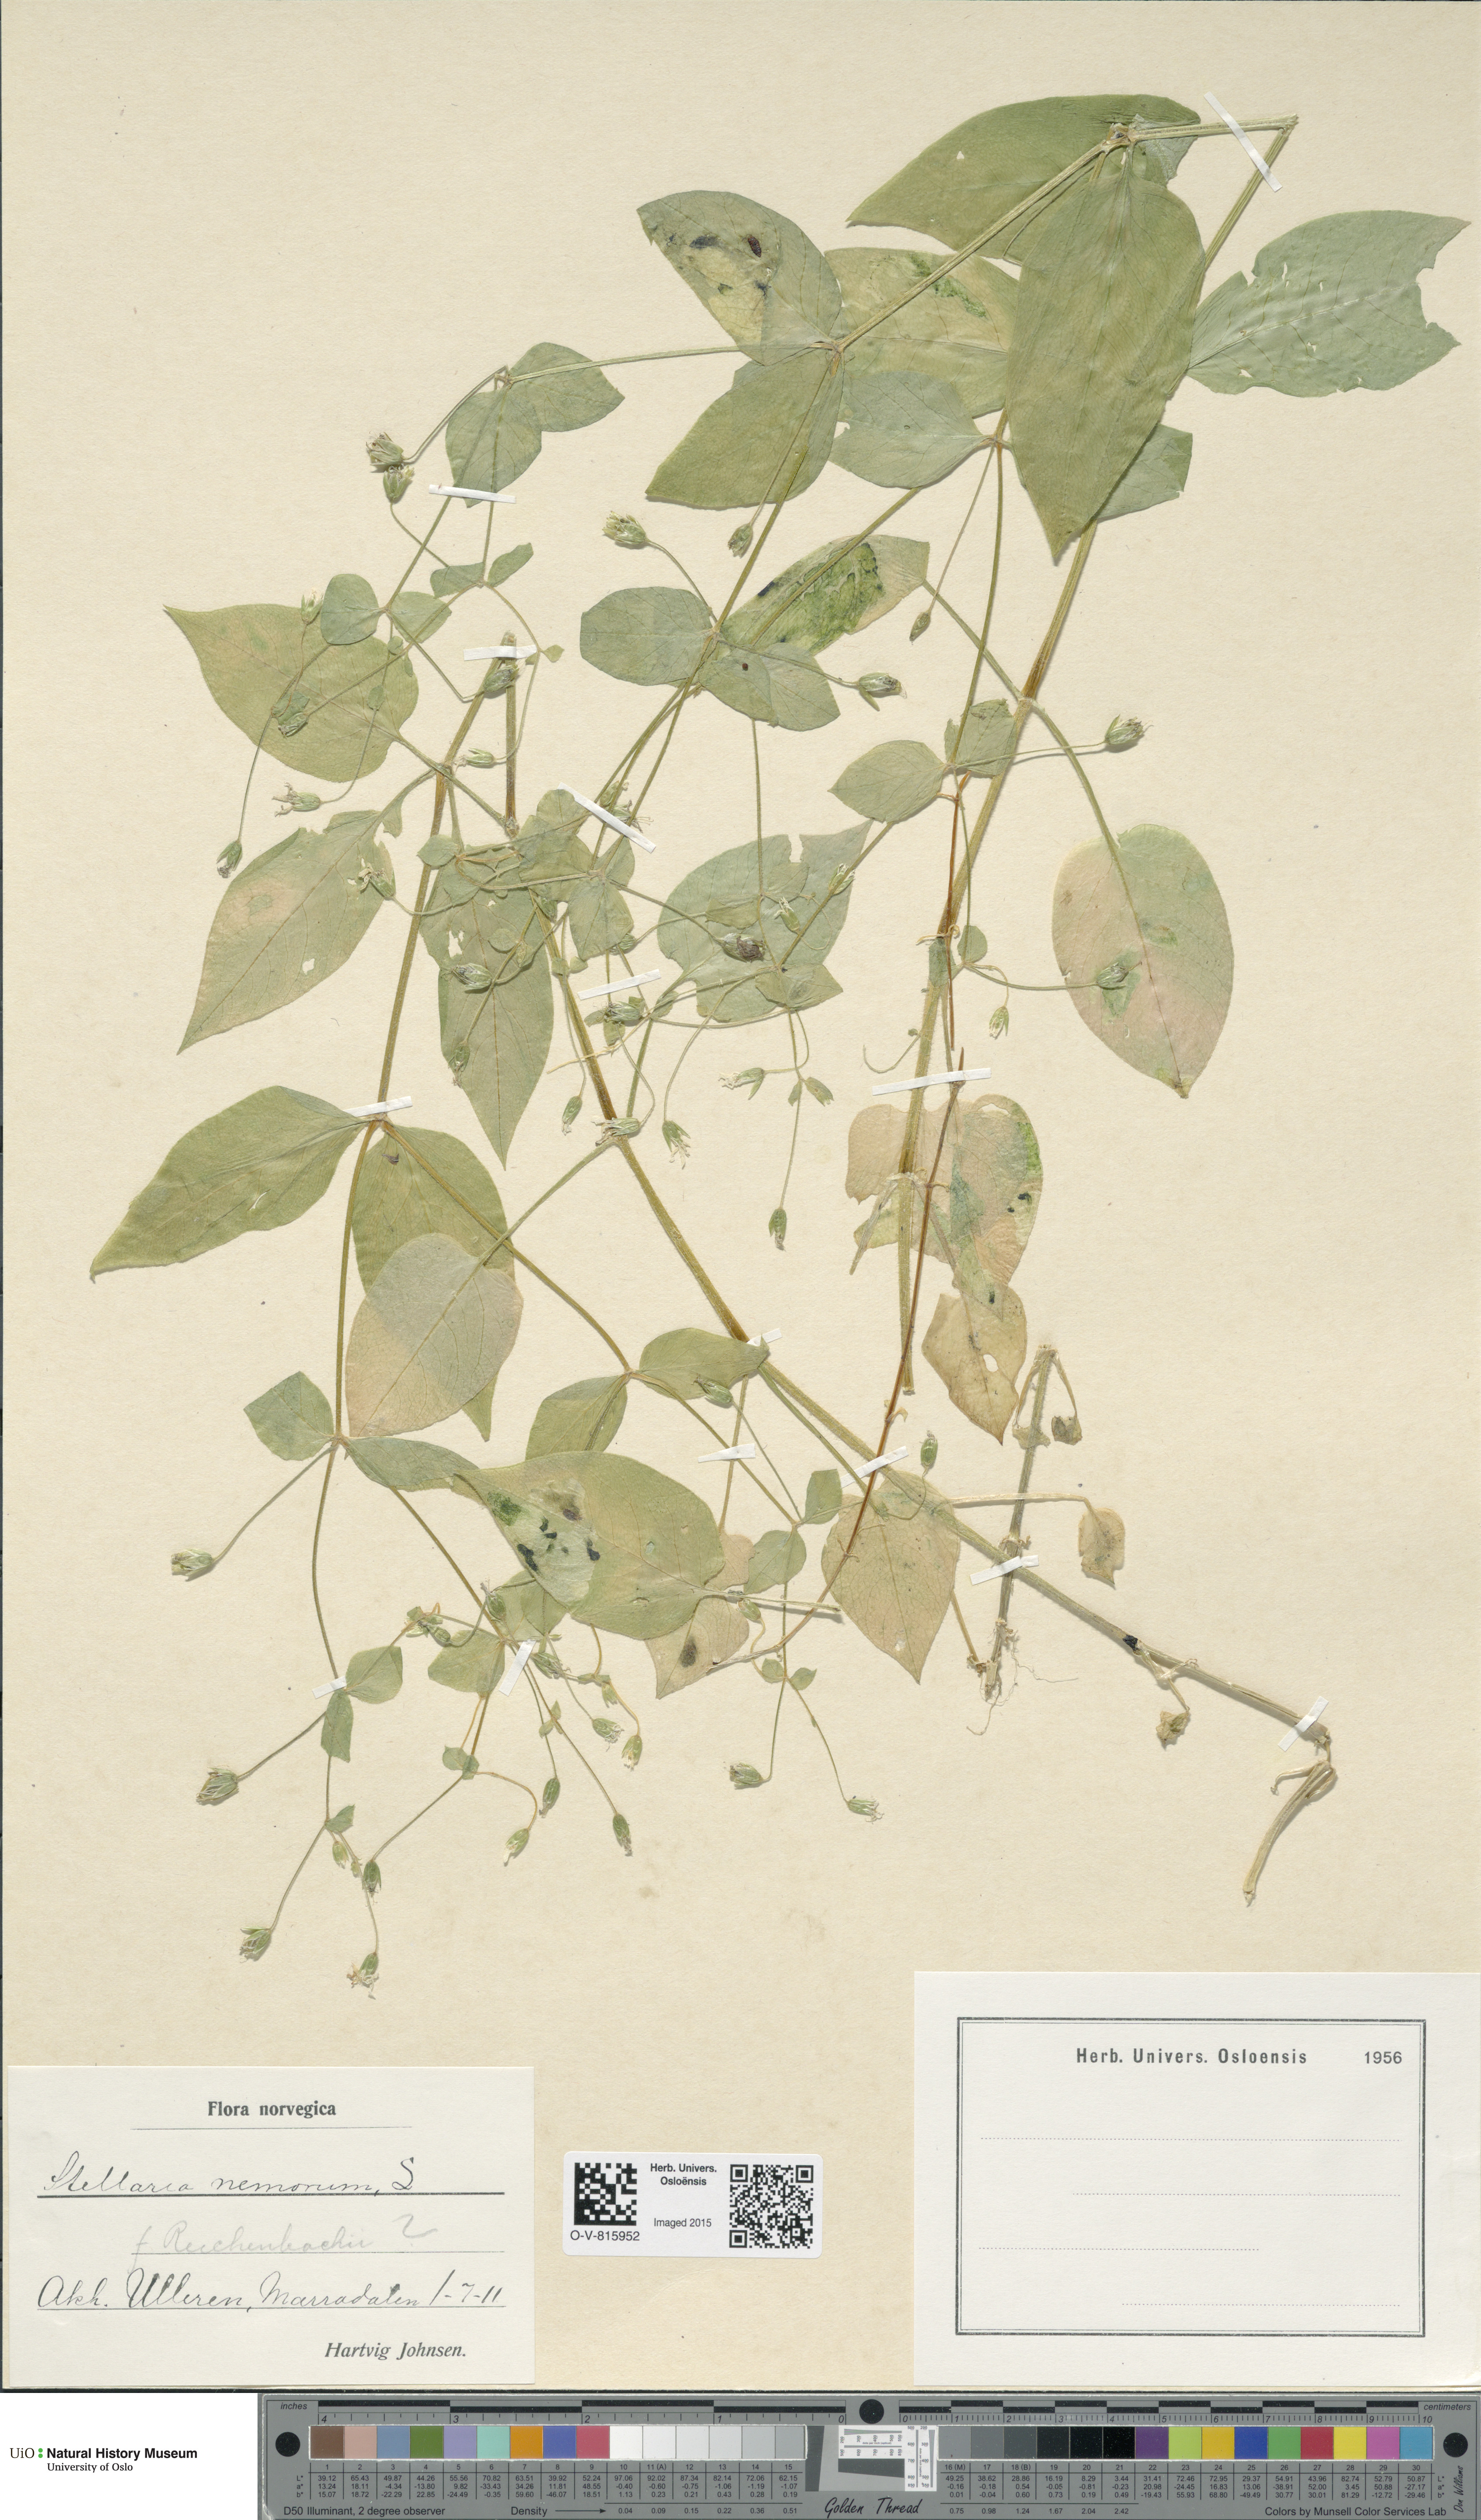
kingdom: Plantae
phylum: Tracheophyta
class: Magnoliopsida
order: Caryophyllales
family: Caryophyllaceae
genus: Stellaria
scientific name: Stellaria nemorum
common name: Wood stitchwort
